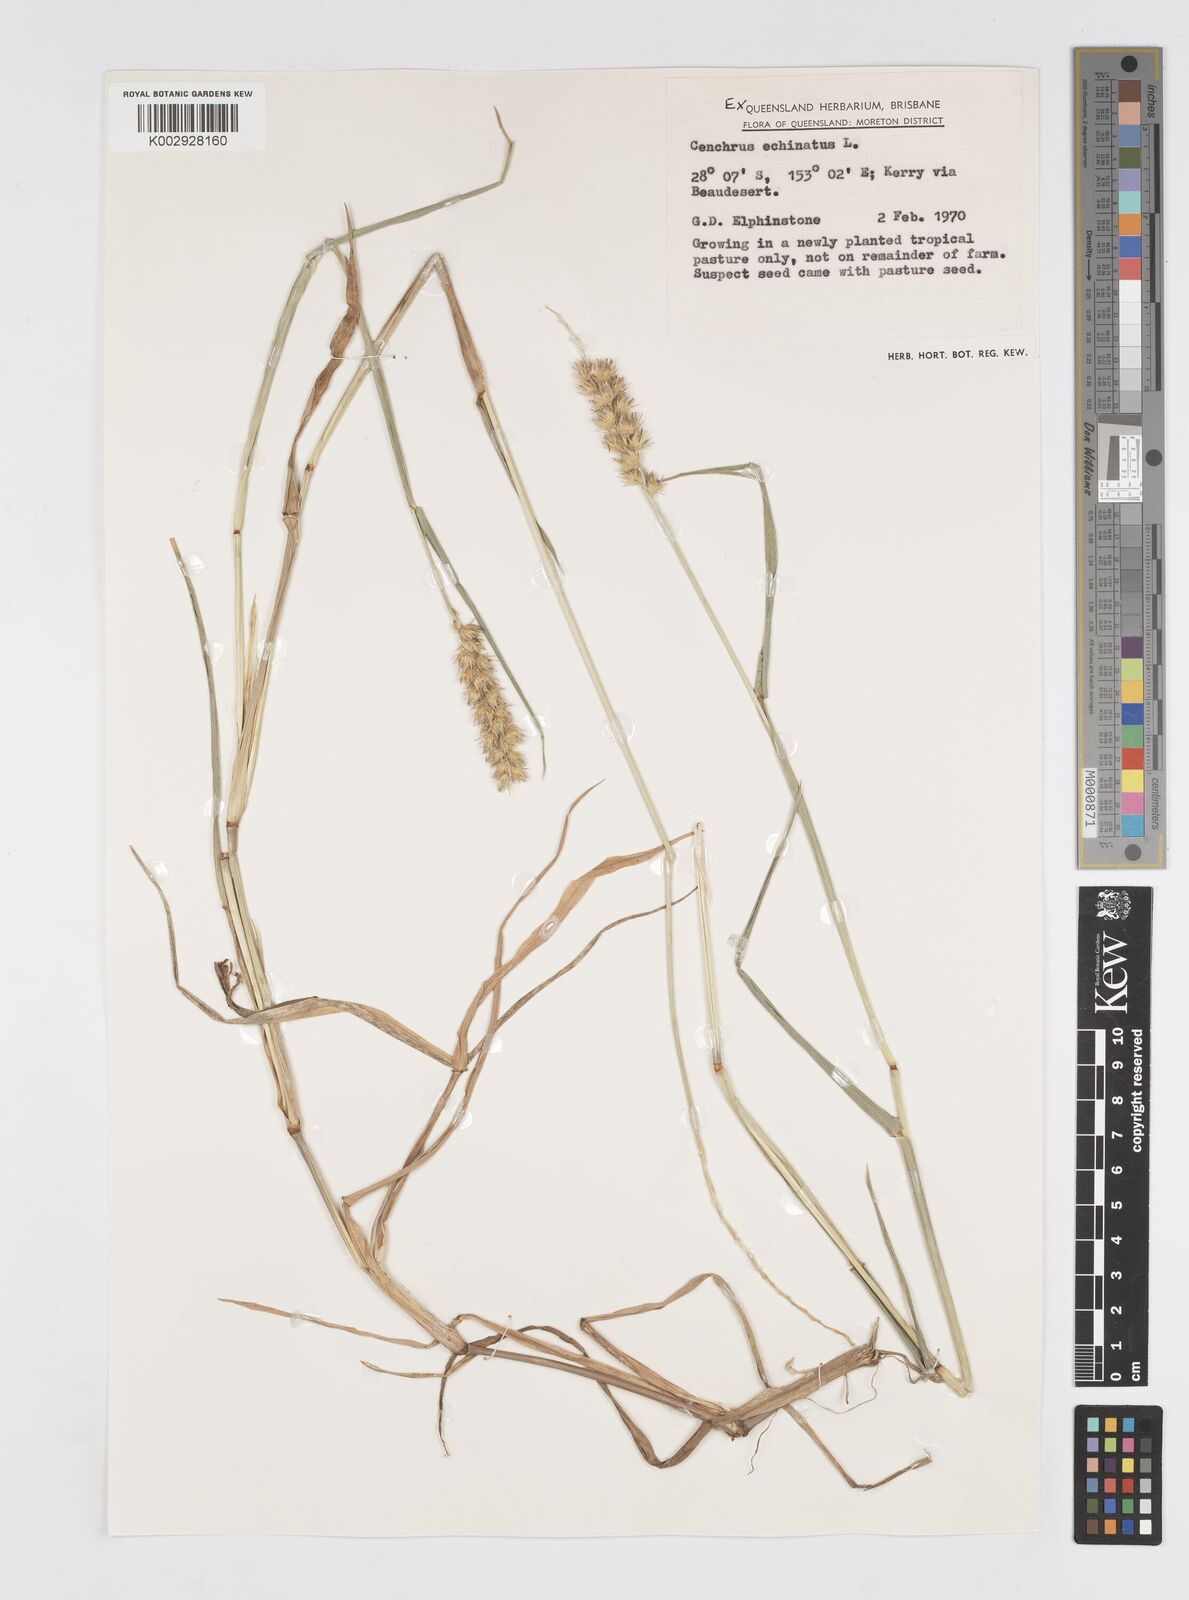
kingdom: Plantae
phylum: Tracheophyta
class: Liliopsida
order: Poales
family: Poaceae
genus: Cenchrus
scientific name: Cenchrus echinatus
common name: Southern sandbur
